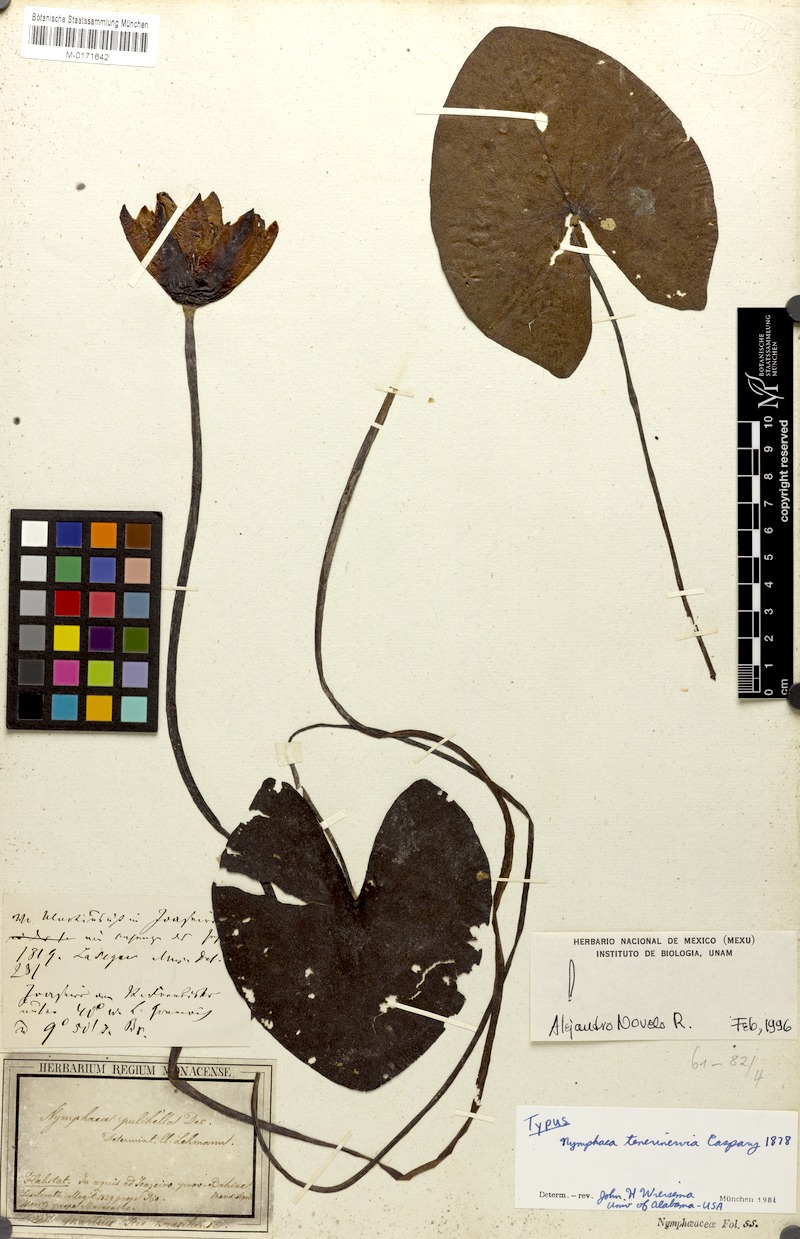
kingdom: Plantae
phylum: Tracheophyta
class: Magnoliopsida
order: Nymphaeales
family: Nymphaeaceae
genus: Nymphaea
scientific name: Nymphaea tenerinervia
